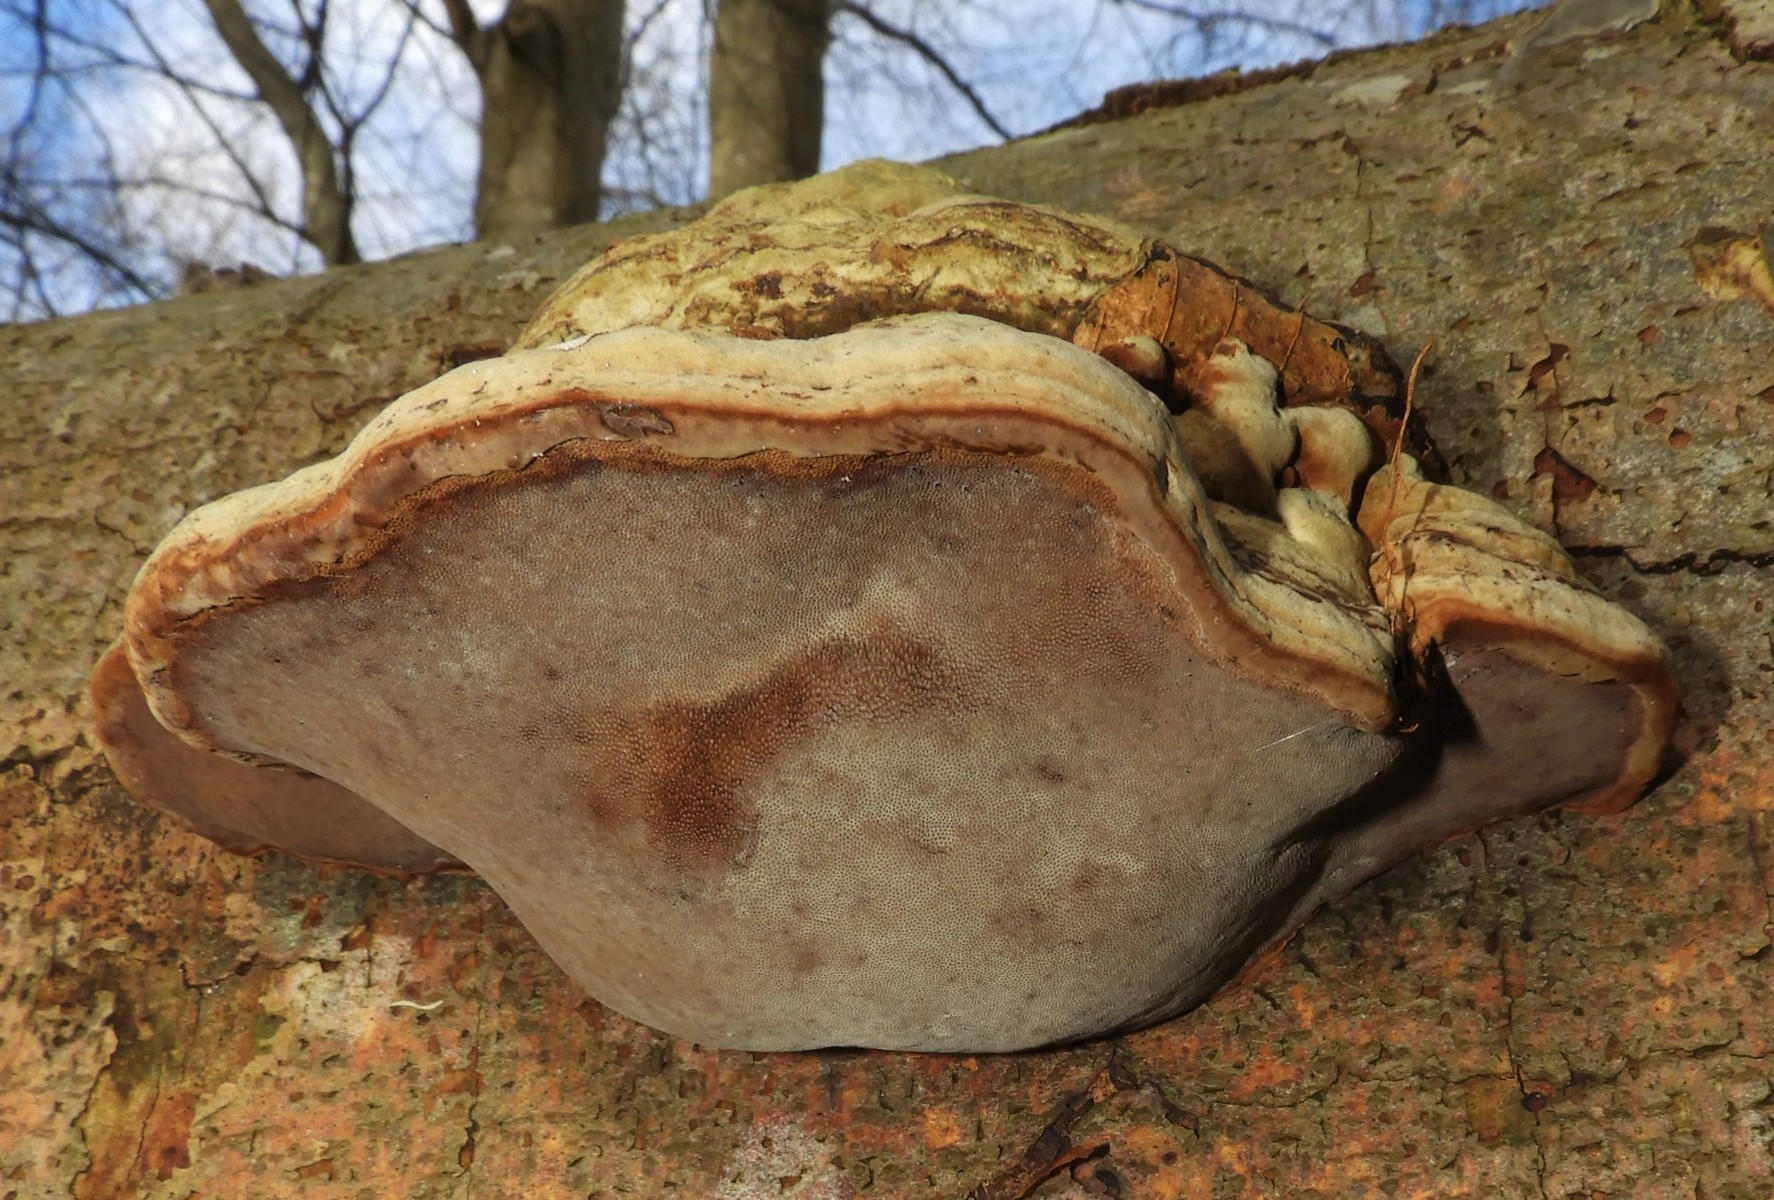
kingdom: Fungi
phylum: Basidiomycota
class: Agaricomycetes
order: Polyporales
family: Polyporaceae
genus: Fomes
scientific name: Fomes fomentarius
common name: tøndersvamp
